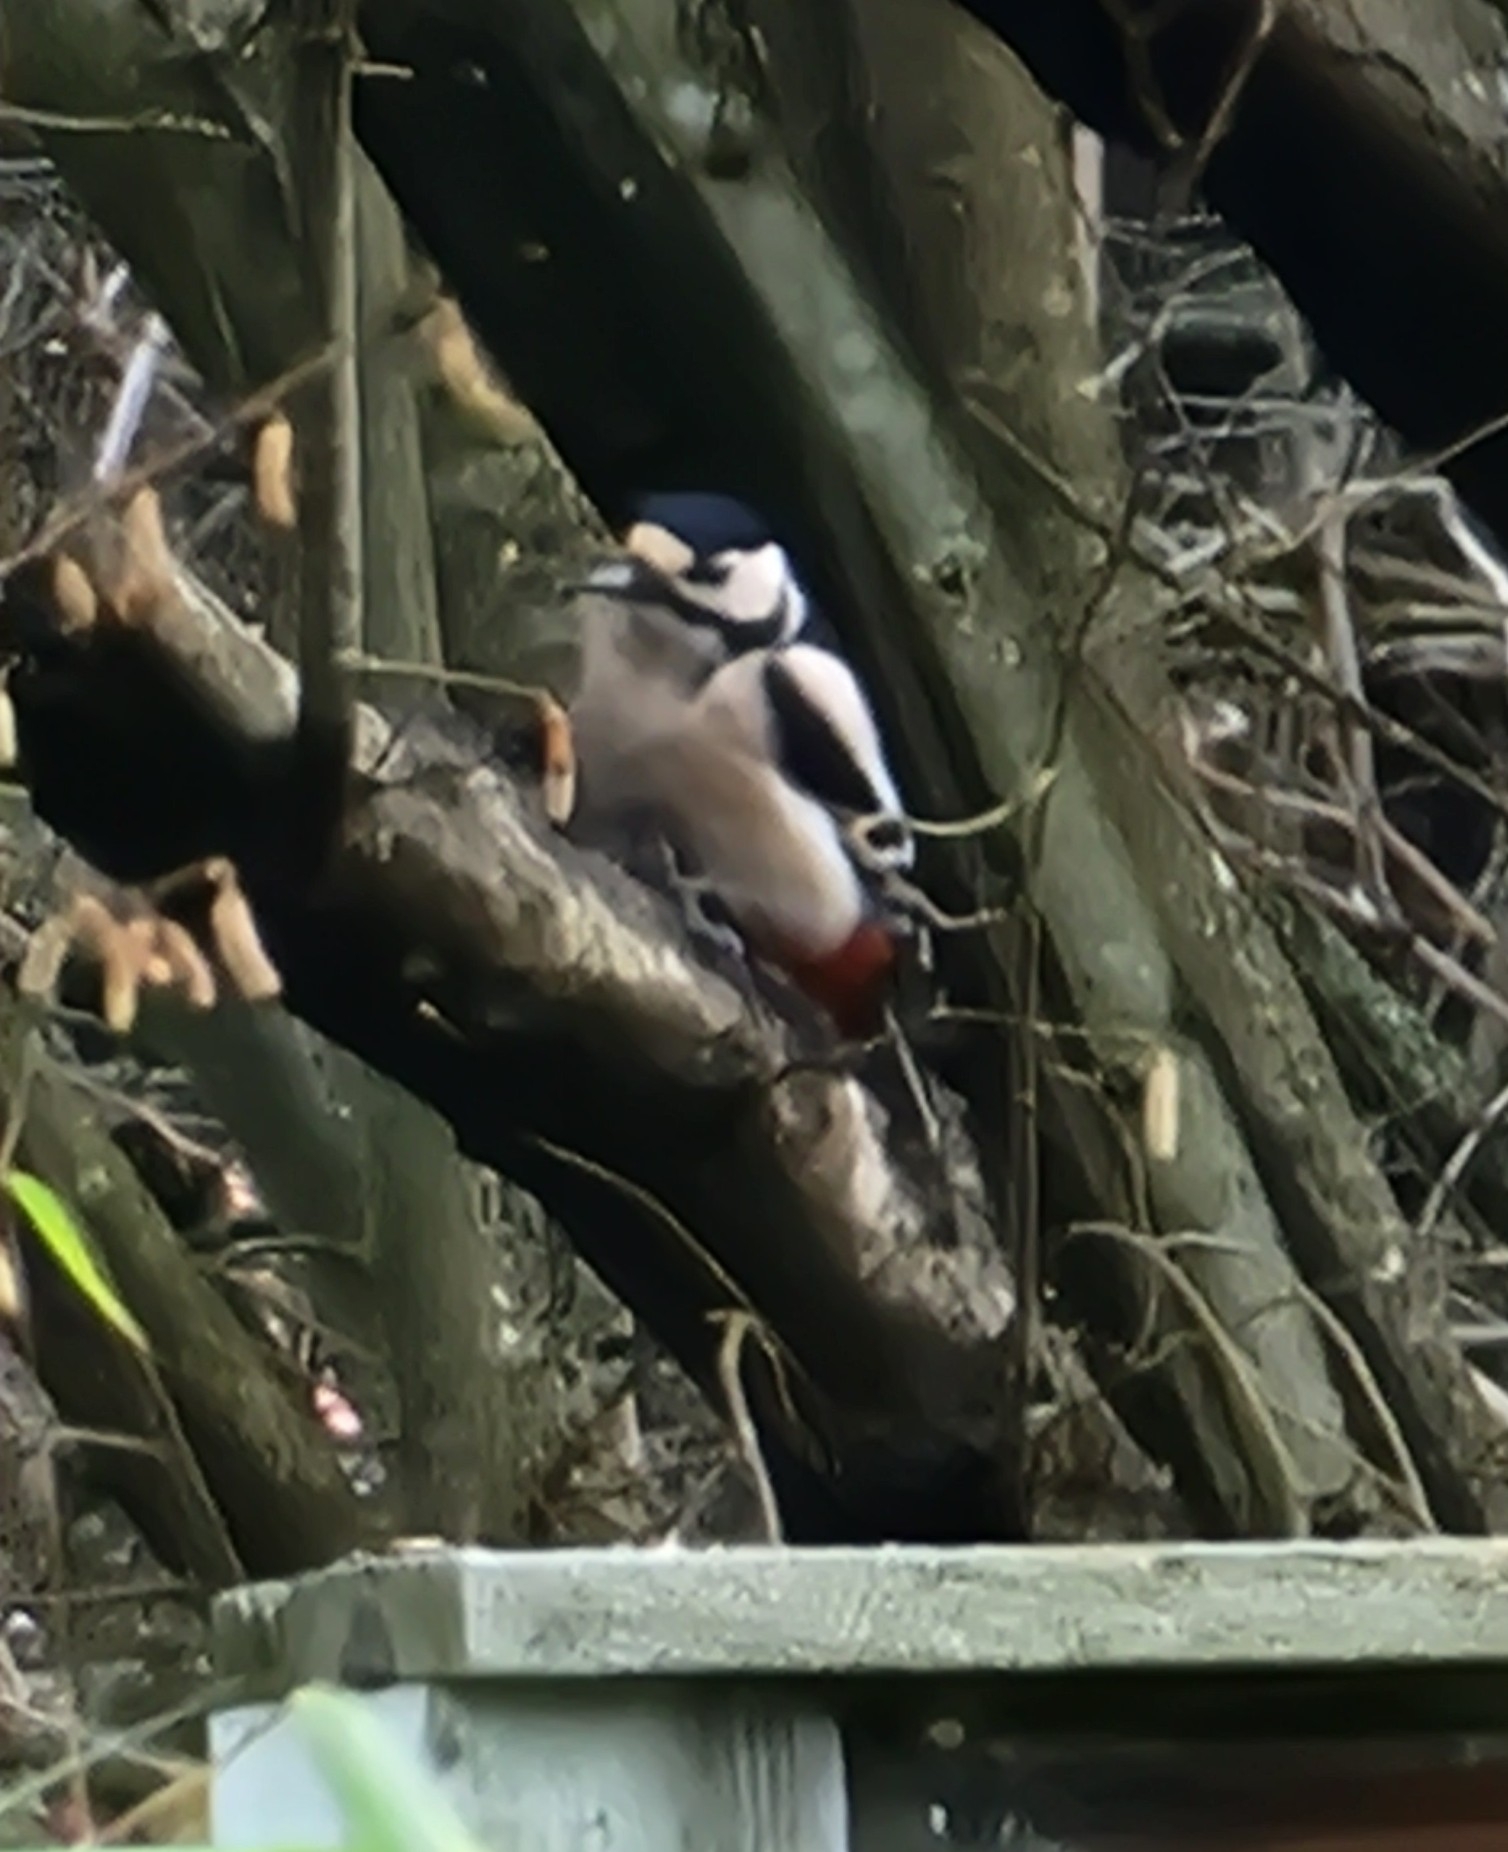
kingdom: Animalia
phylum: Chordata
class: Aves
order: Piciformes
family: Picidae
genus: Dendrocopos
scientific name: Dendrocopos major
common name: Stor flagspætte
